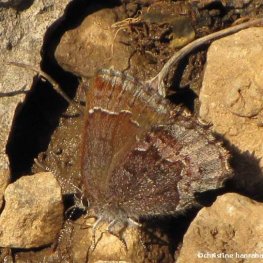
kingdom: Animalia
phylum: Arthropoda
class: Insecta
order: Lepidoptera
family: Lycaenidae
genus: Callophrys
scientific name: Callophrys polios
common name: Hoary Elfin
